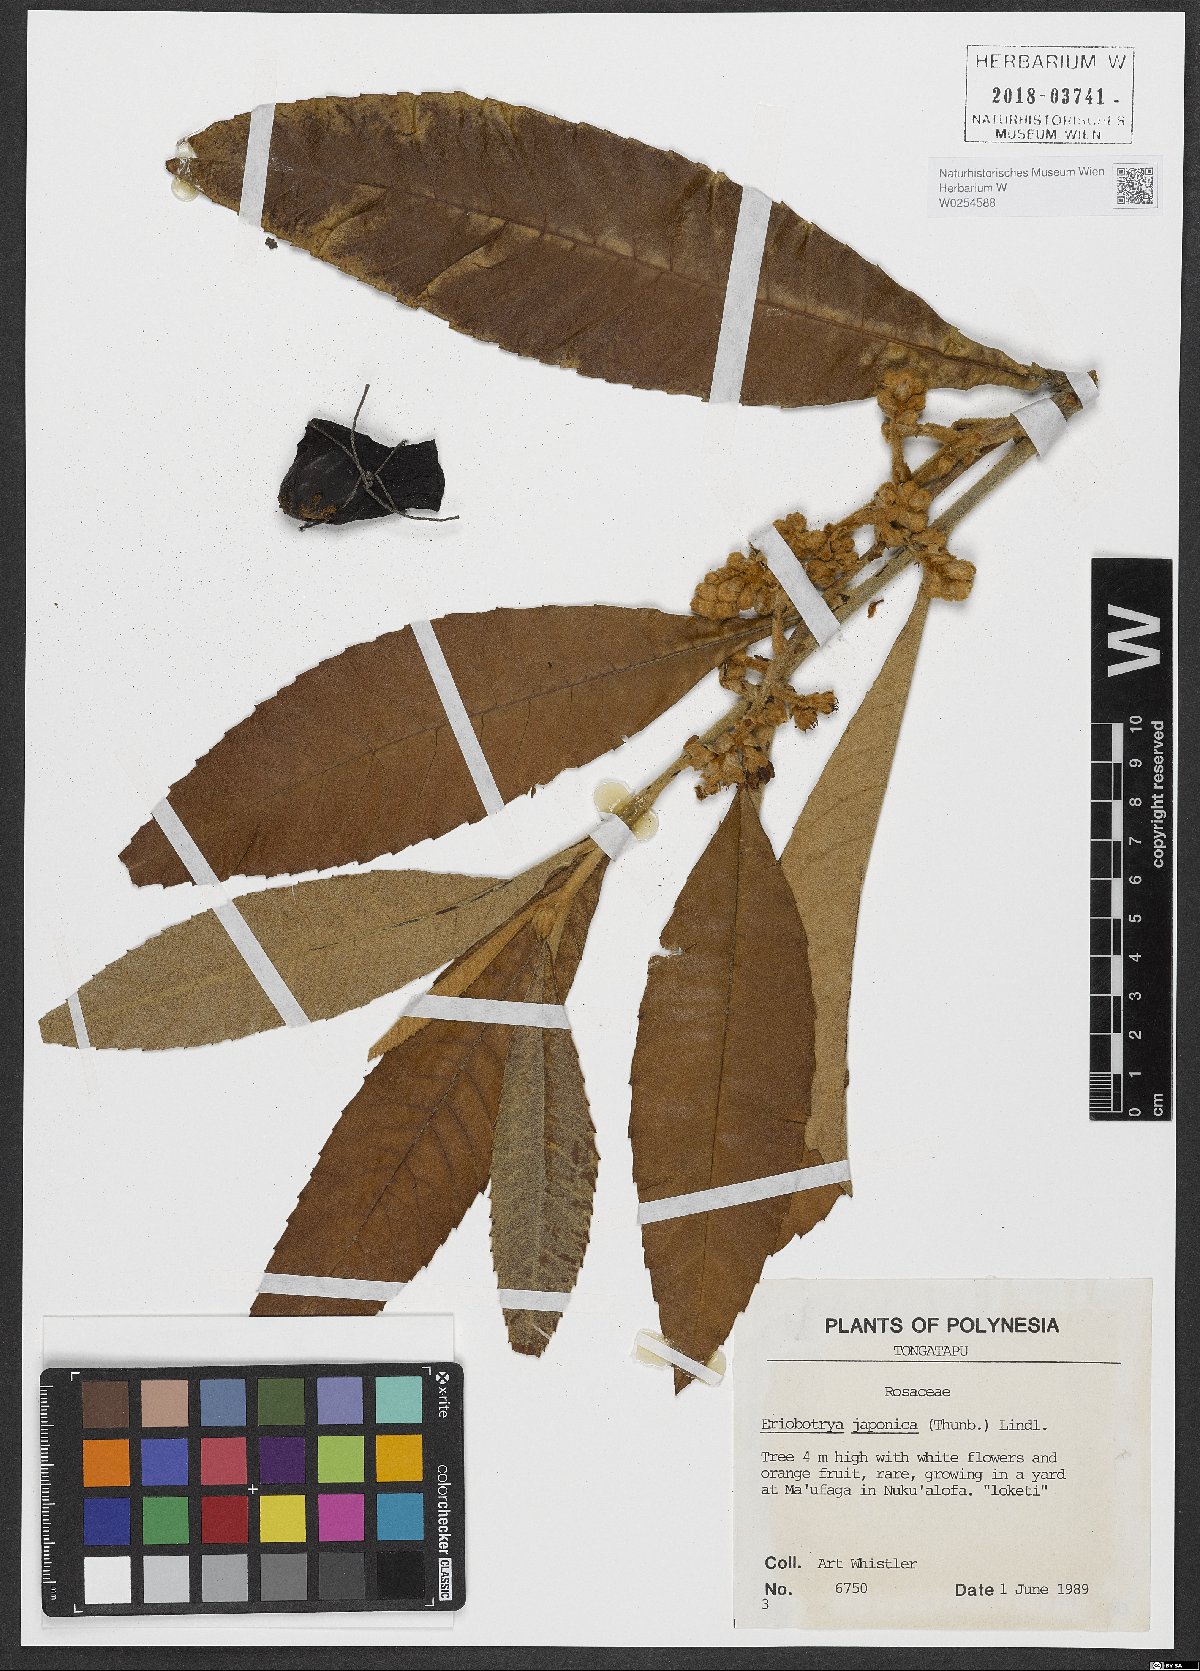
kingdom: Plantae
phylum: Tracheophyta
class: Magnoliopsida
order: Rosales
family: Rosaceae
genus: Rhaphiolepis
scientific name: Rhaphiolepis bibas
